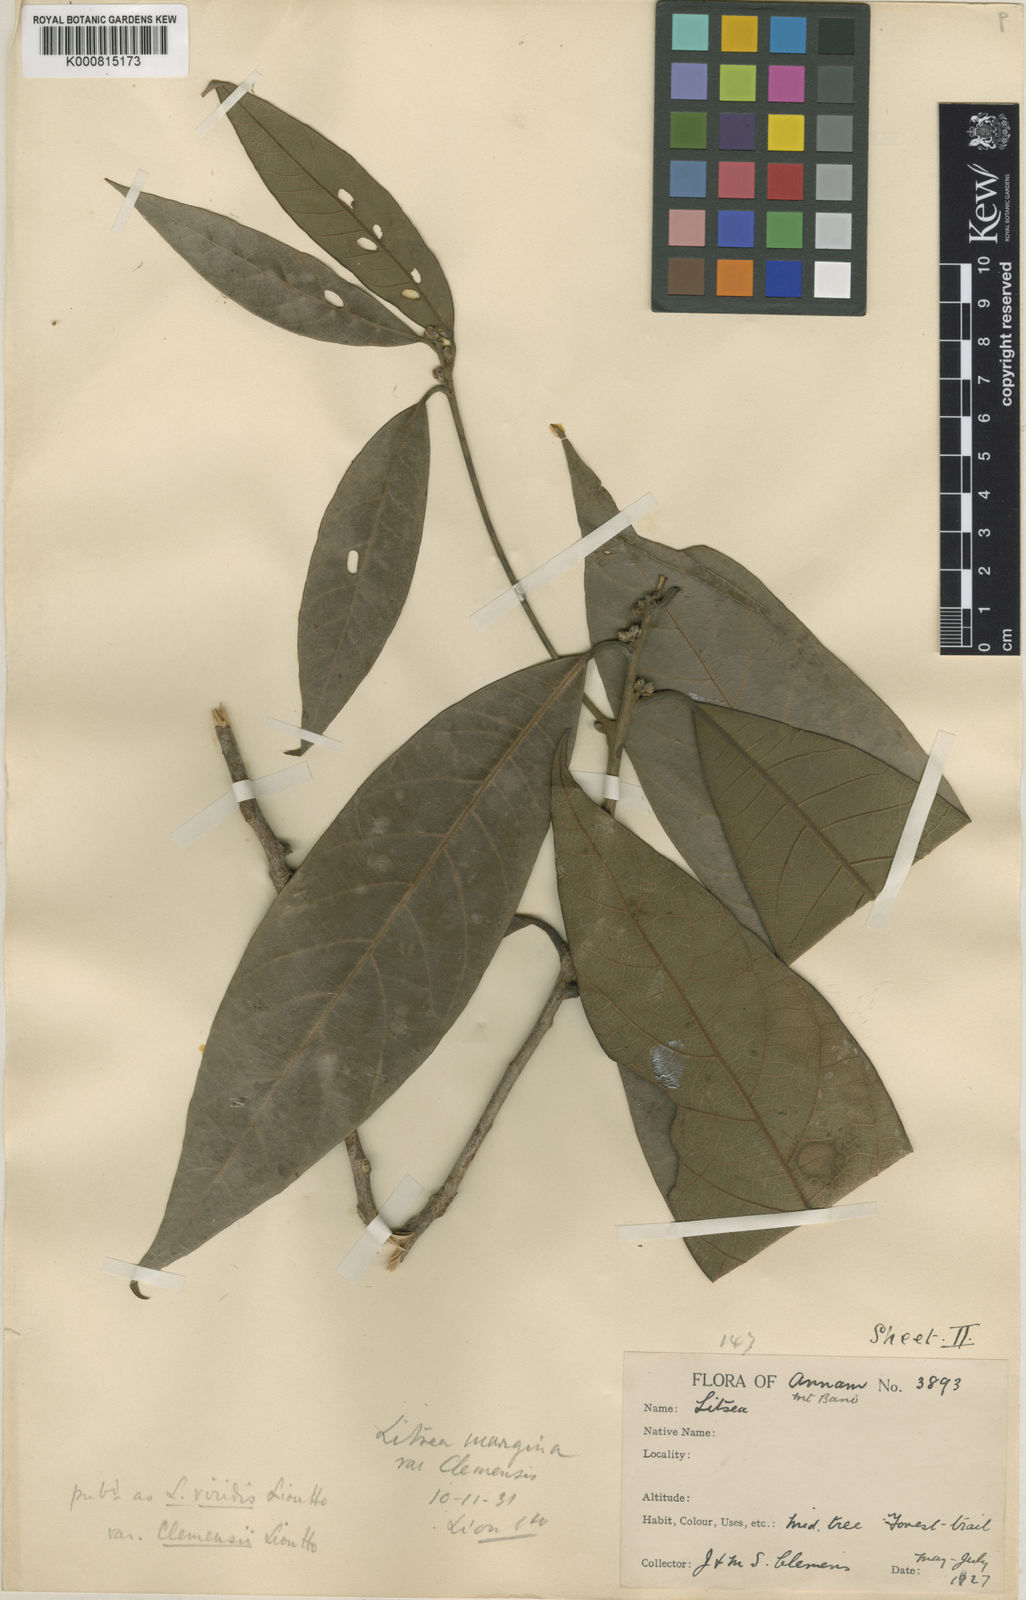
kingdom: Plantae
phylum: Tracheophyta
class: Magnoliopsida
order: Laurales
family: Lauraceae
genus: Litsea
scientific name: Litsea viridis
